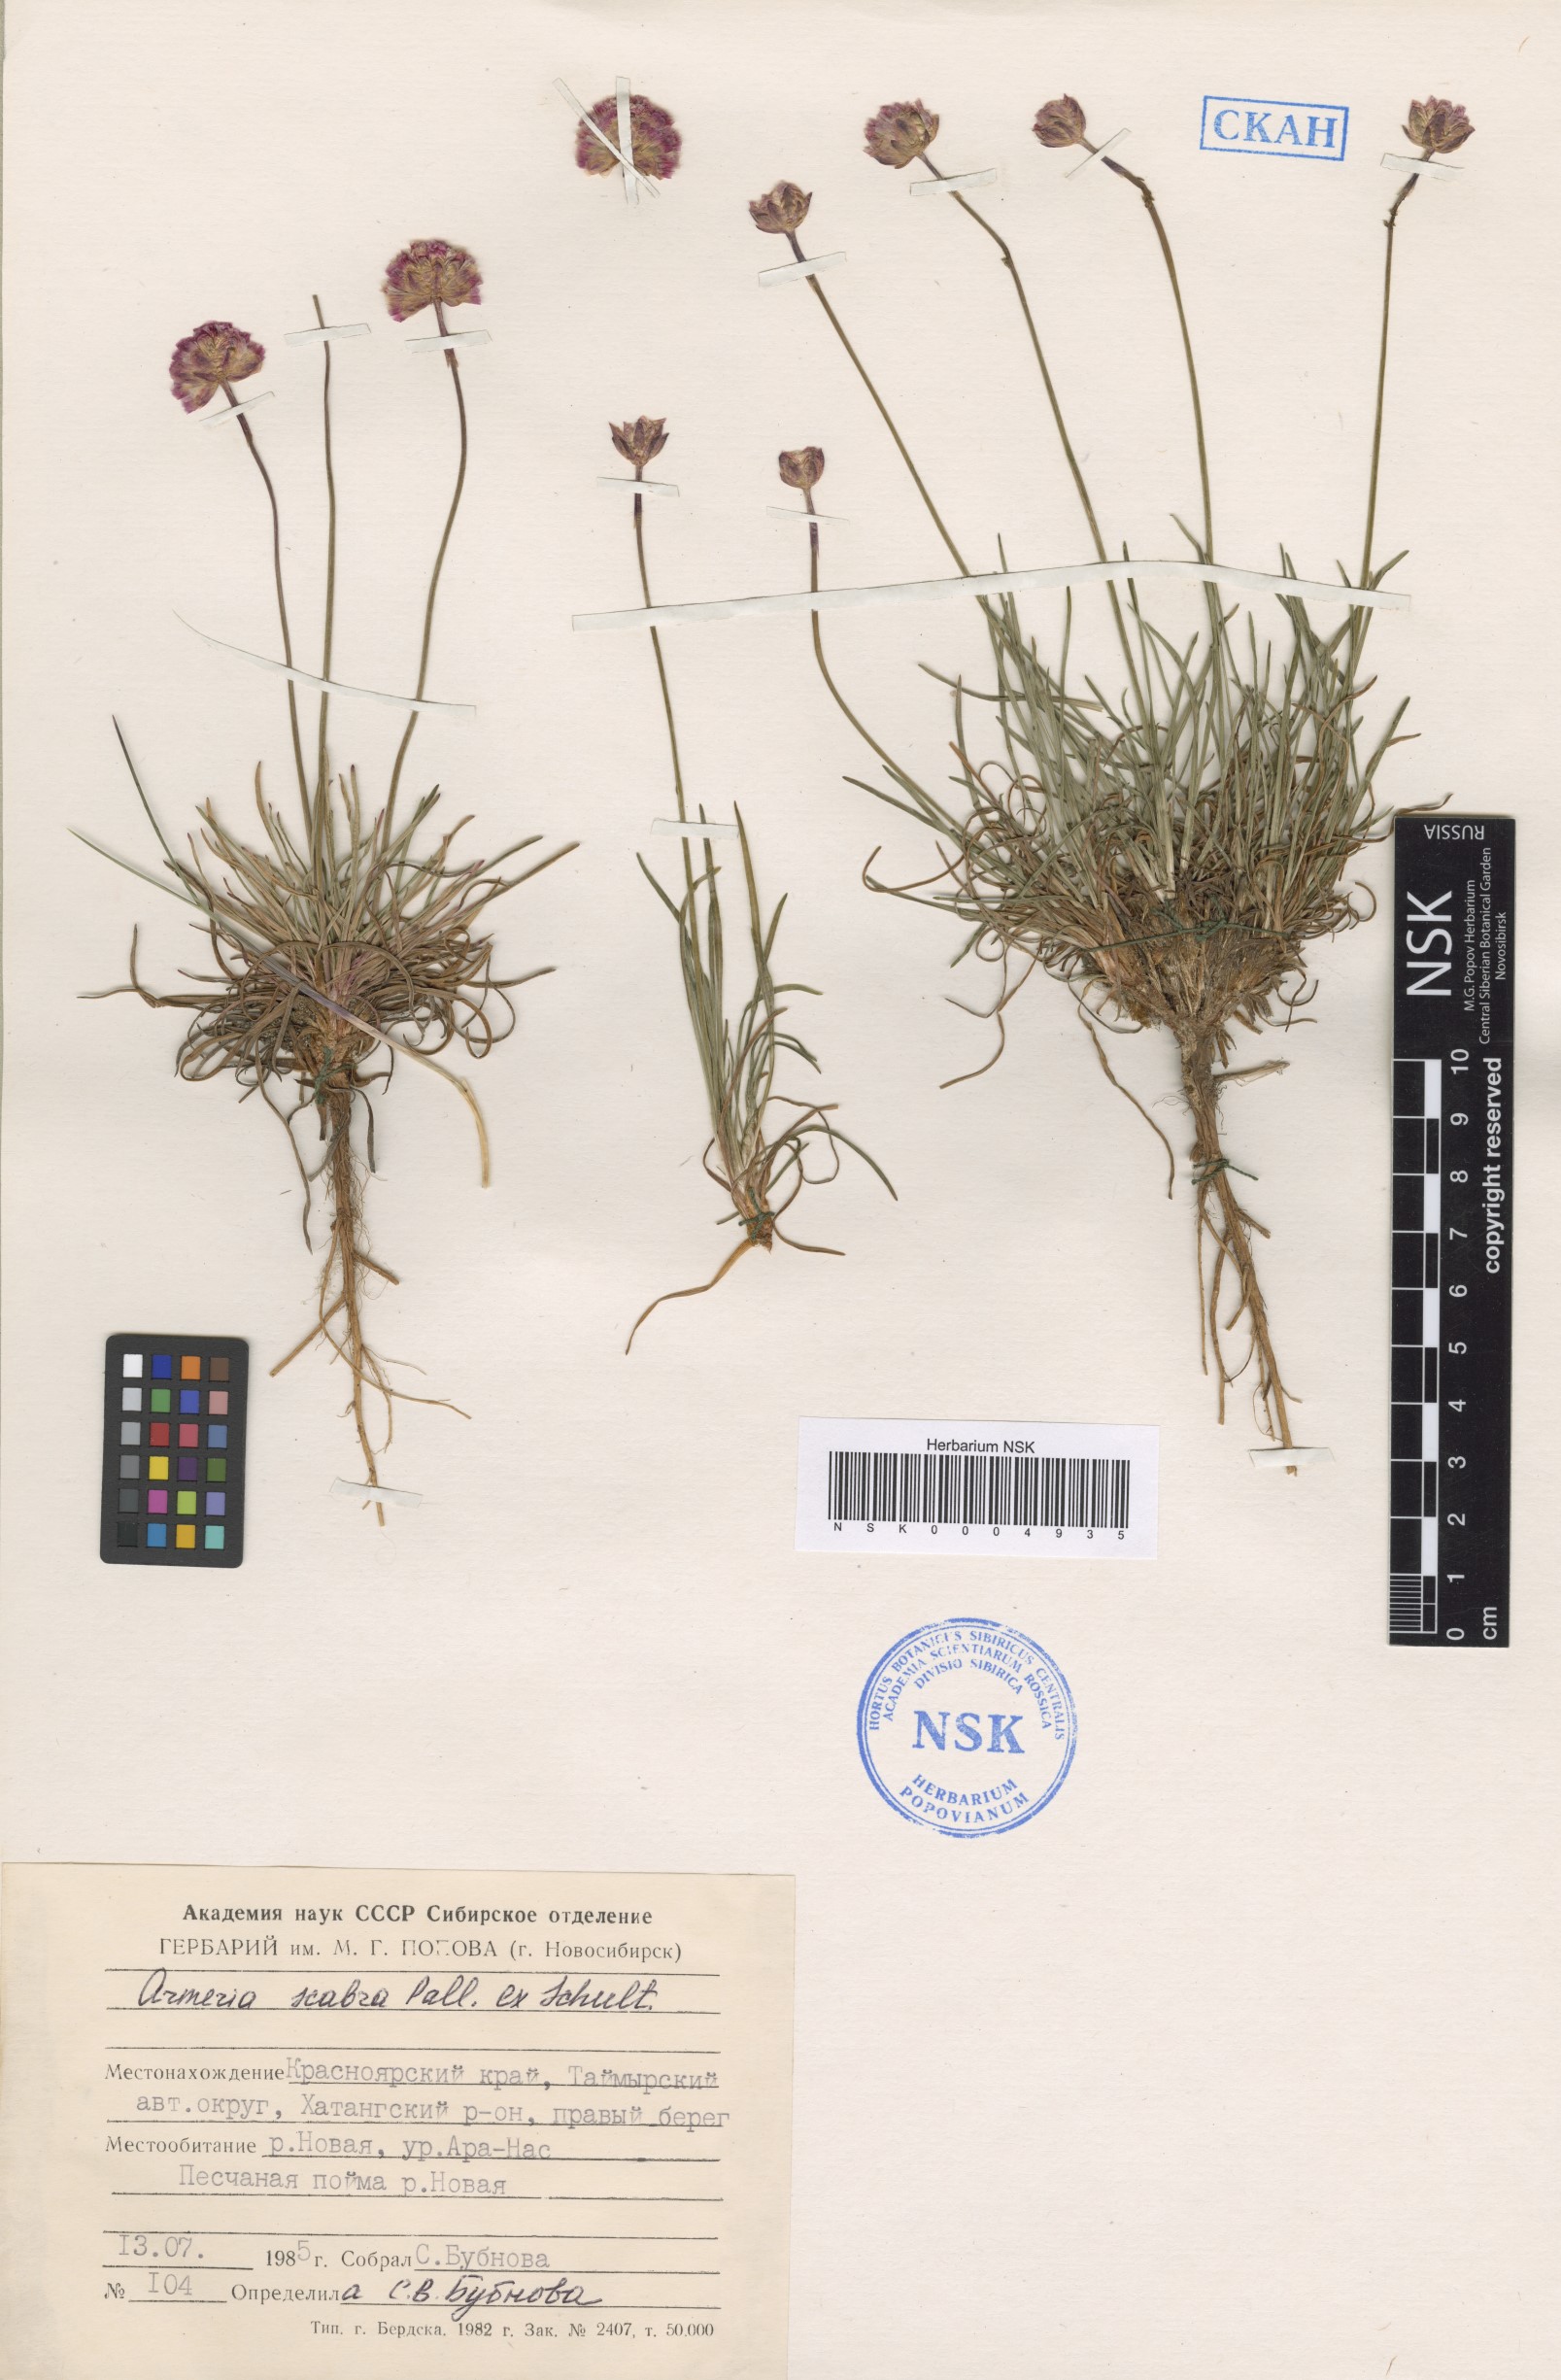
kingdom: Plantae
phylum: Tracheophyta
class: Magnoliopsida
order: Caryophyllales
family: Plumbaginaceae
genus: Armeria
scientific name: Armeria maritima
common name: Thrift
